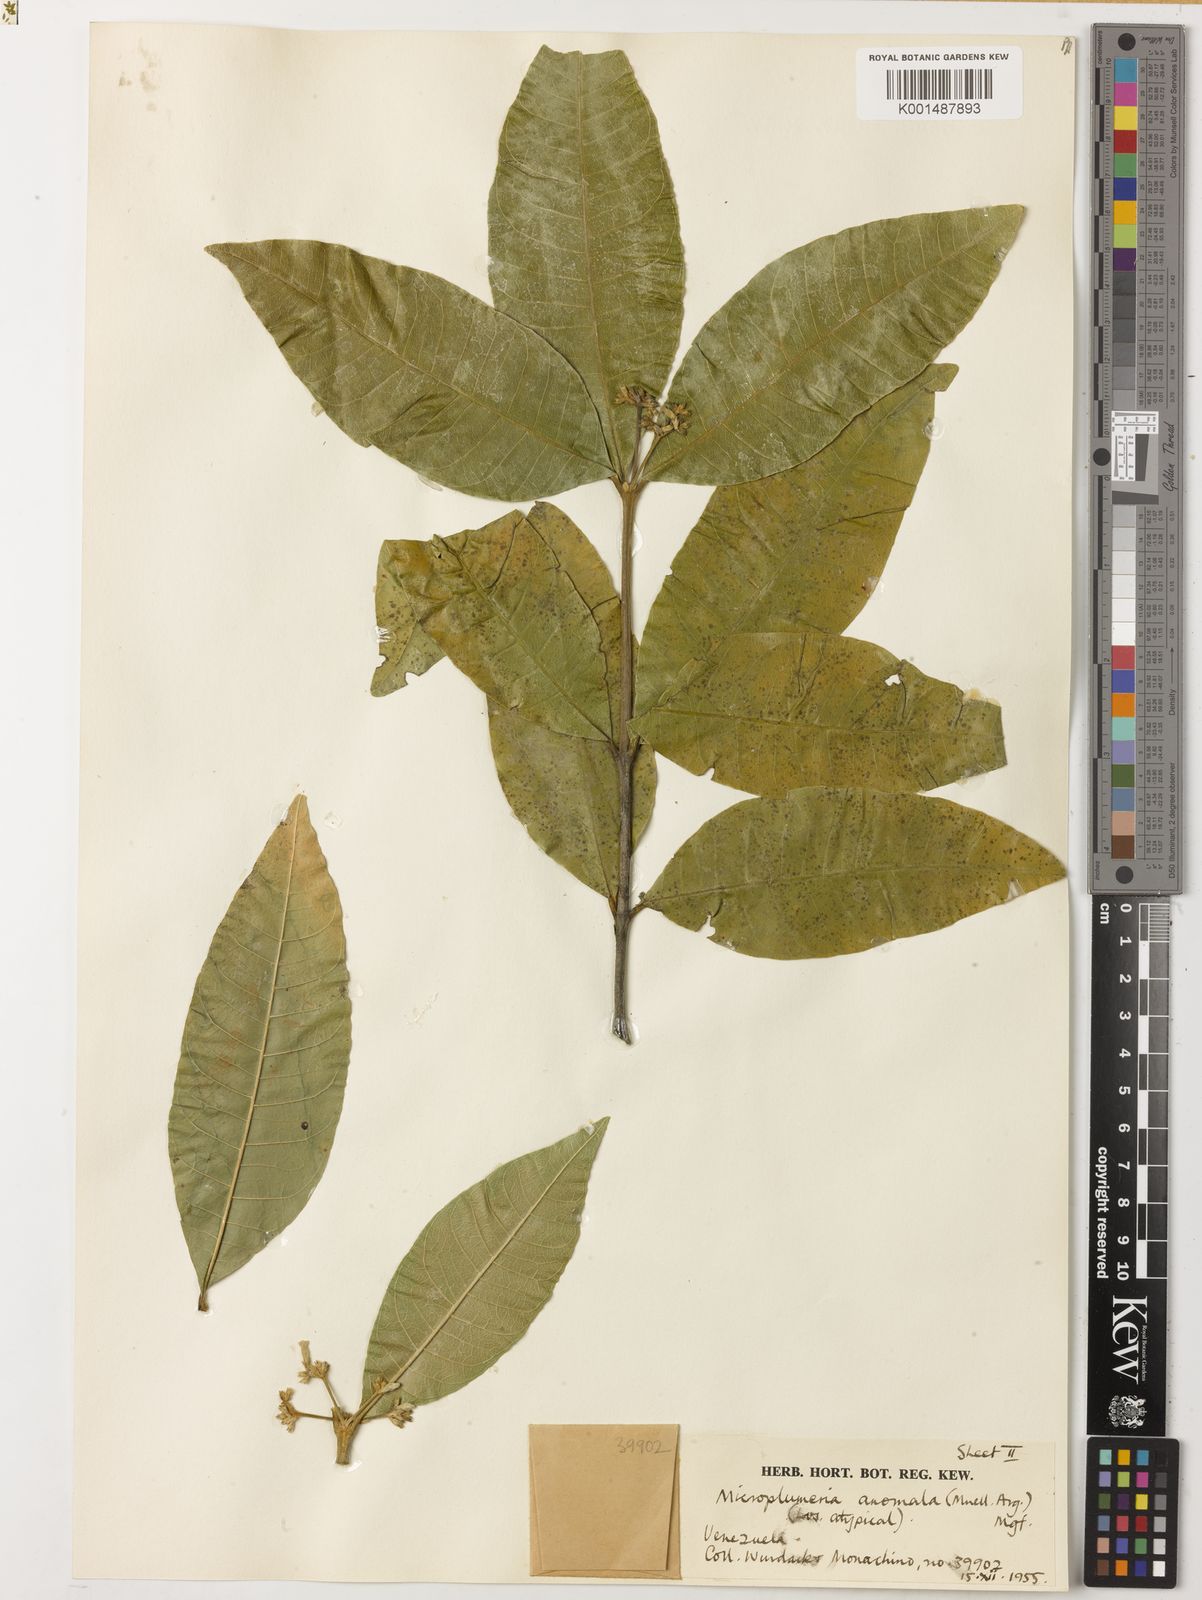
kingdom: Plantae
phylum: Tracheophyta
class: Magnoliopsida
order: Gentianales
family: Apocynaceae
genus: Microplumeria
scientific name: Microplumeria anomala
